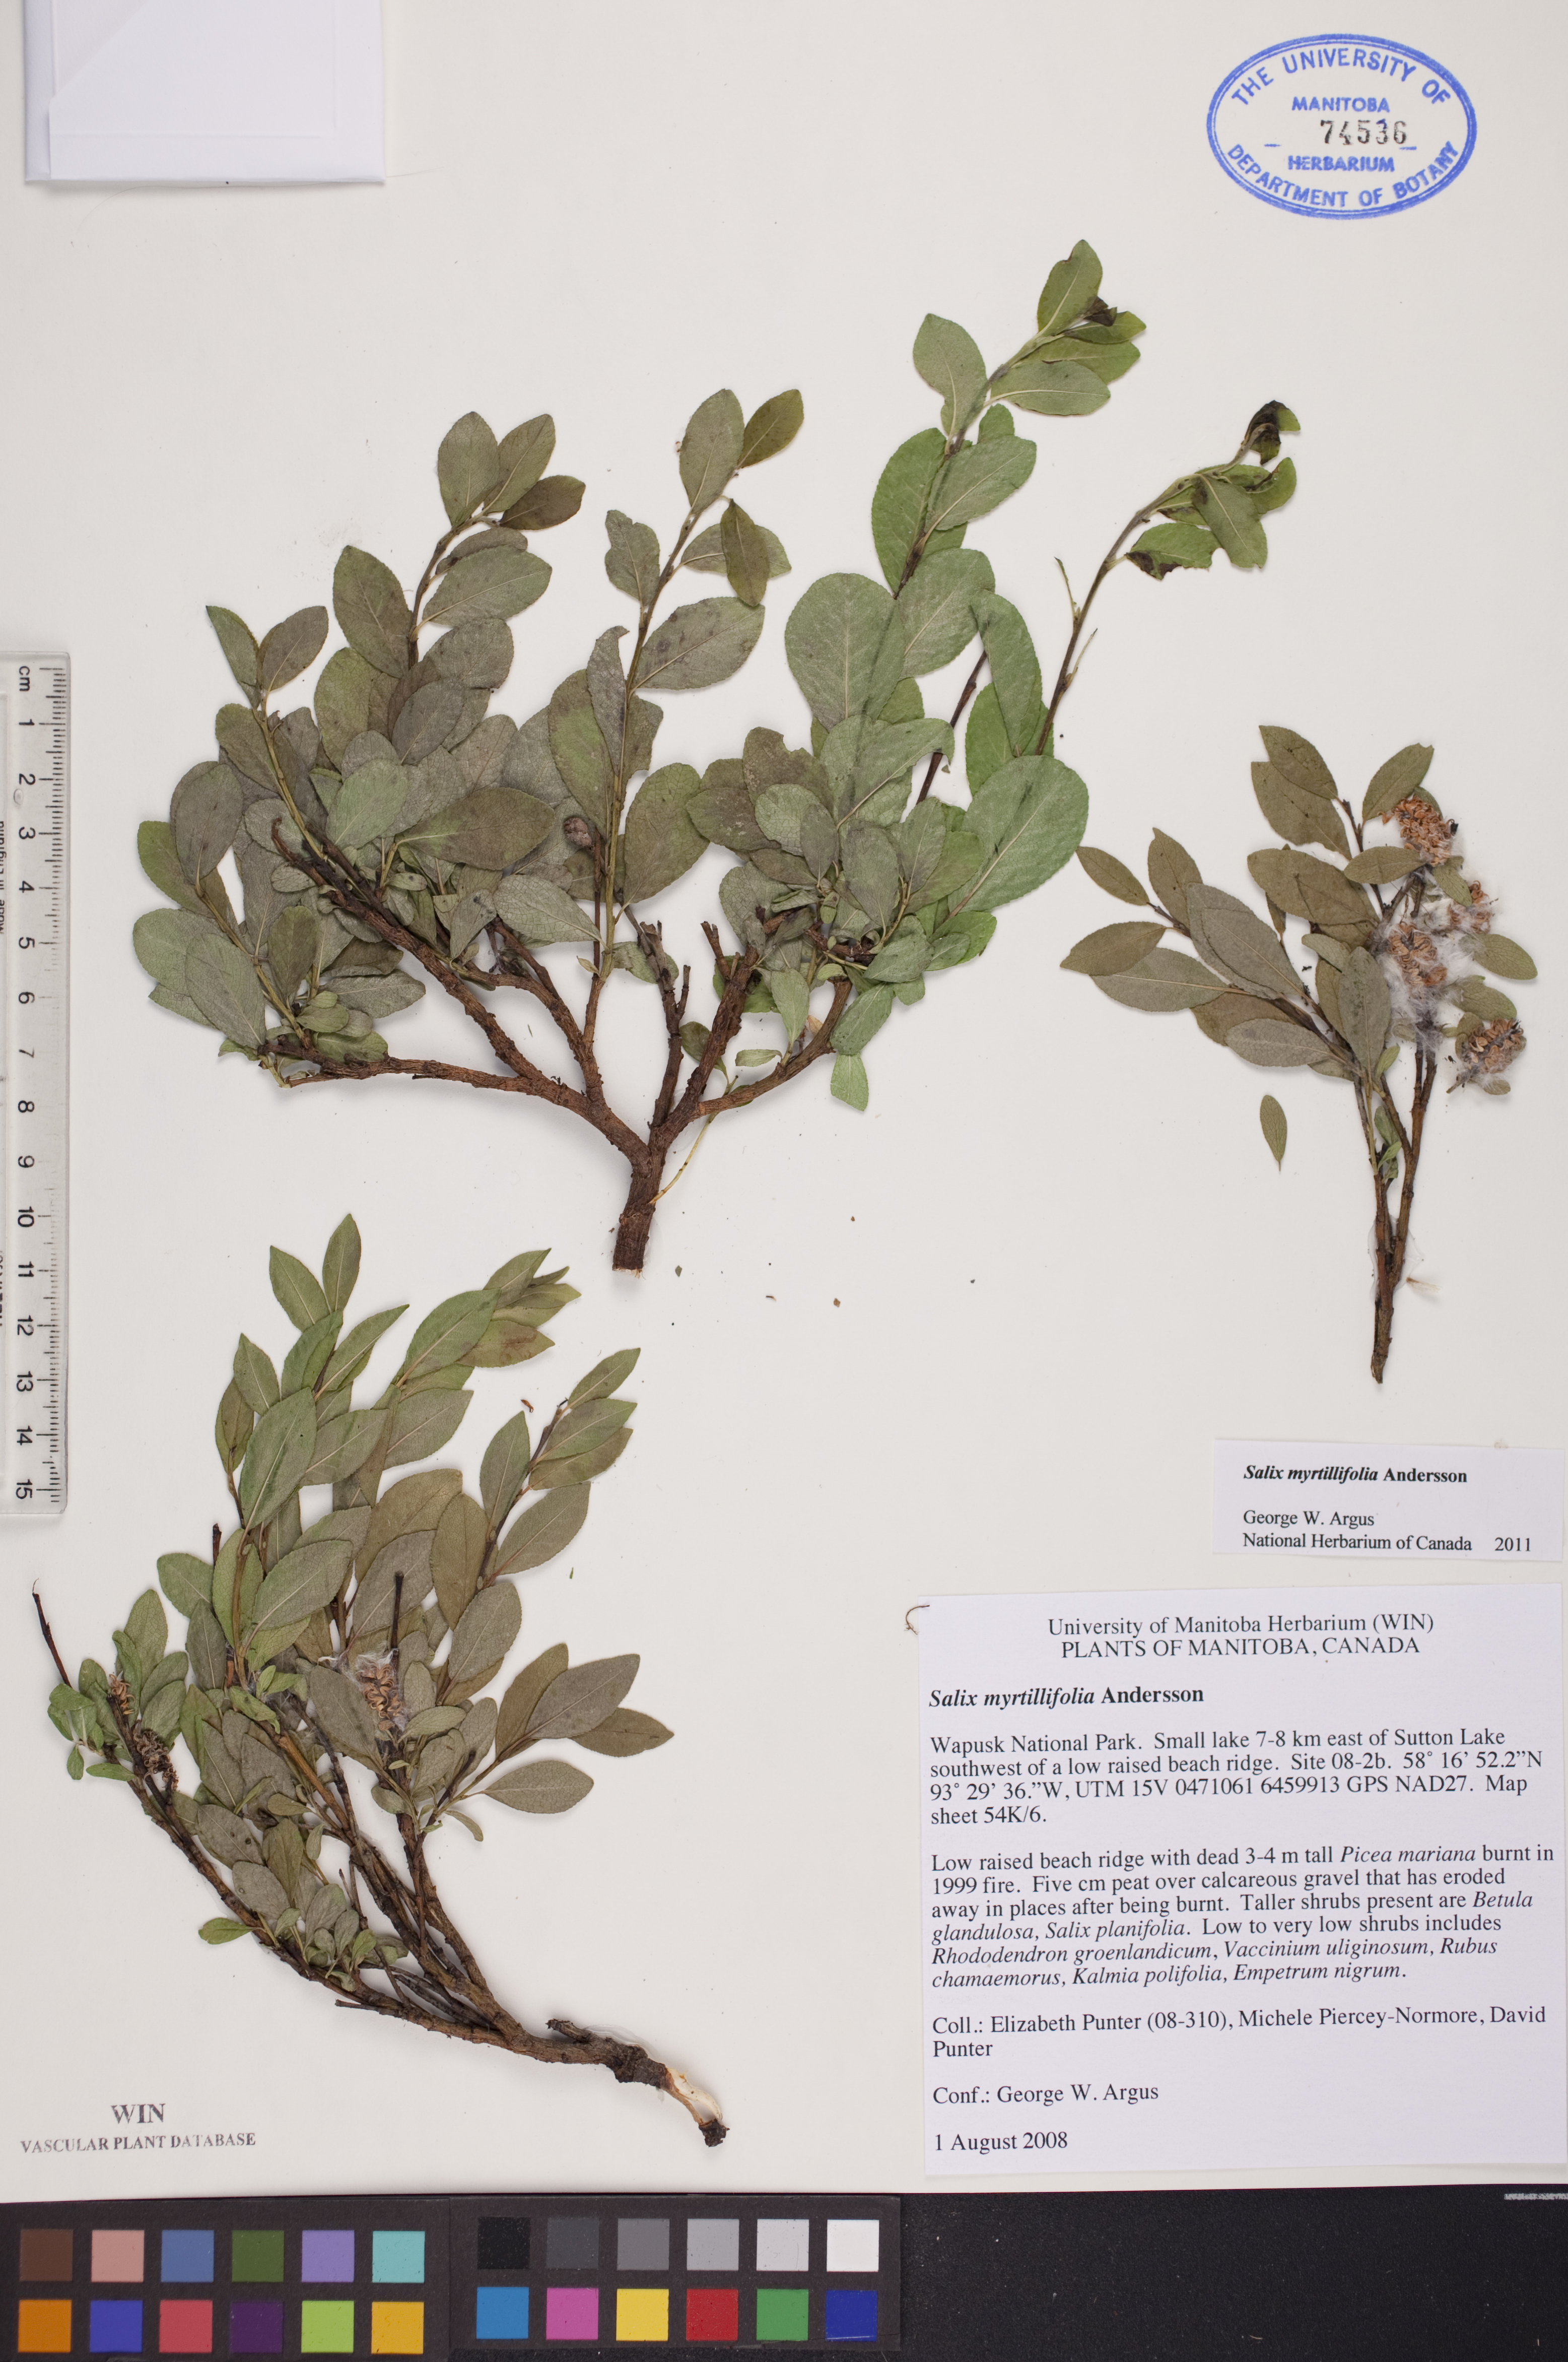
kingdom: Plantae
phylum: Tracheophyta
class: Magnoliopsida
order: Malpighiales
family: Salicaceae
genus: Salix
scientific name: Salix myrtillifolia
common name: Bilberry willow
